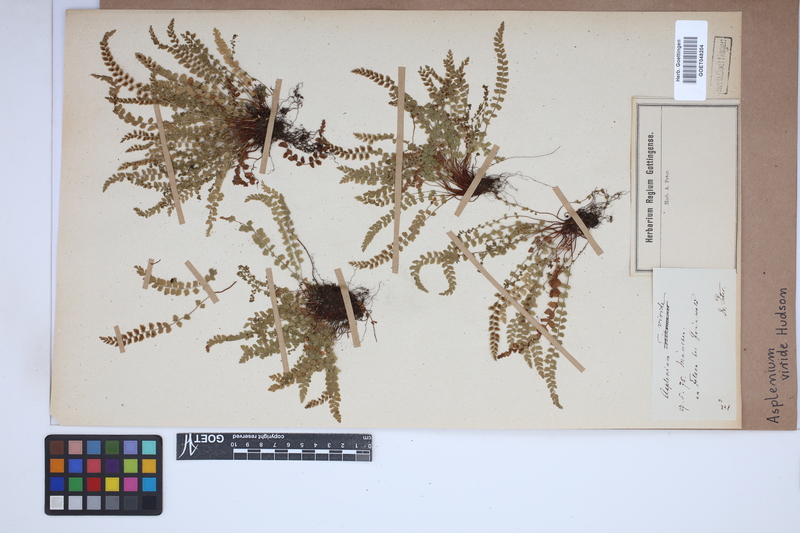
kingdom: Plantae
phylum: Tracheophyta
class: Polypodiopsida
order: Polypodiales
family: Aspleniaceae
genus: Asplenium
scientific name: Asplenium viride
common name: Green spleenwort
